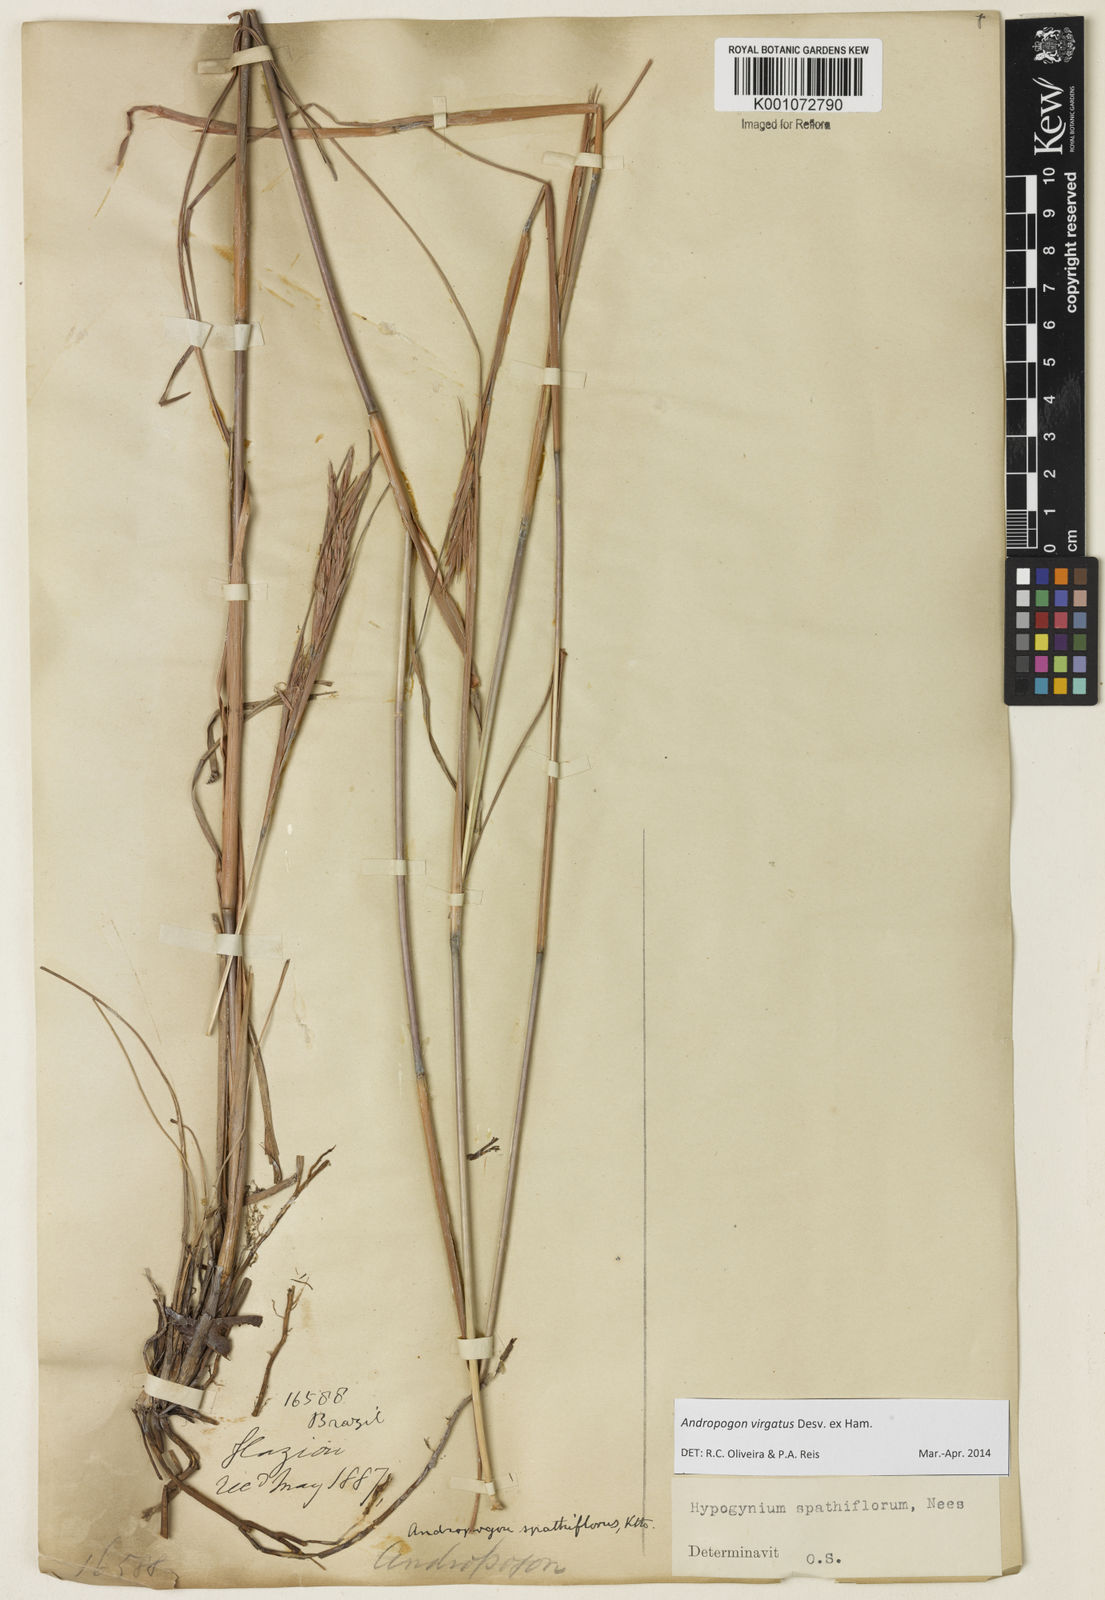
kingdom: Plantae
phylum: Tracheophyta
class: Liliopsida
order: Poales
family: Poaceae
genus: Andropogon
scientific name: Andropogon virgatus
